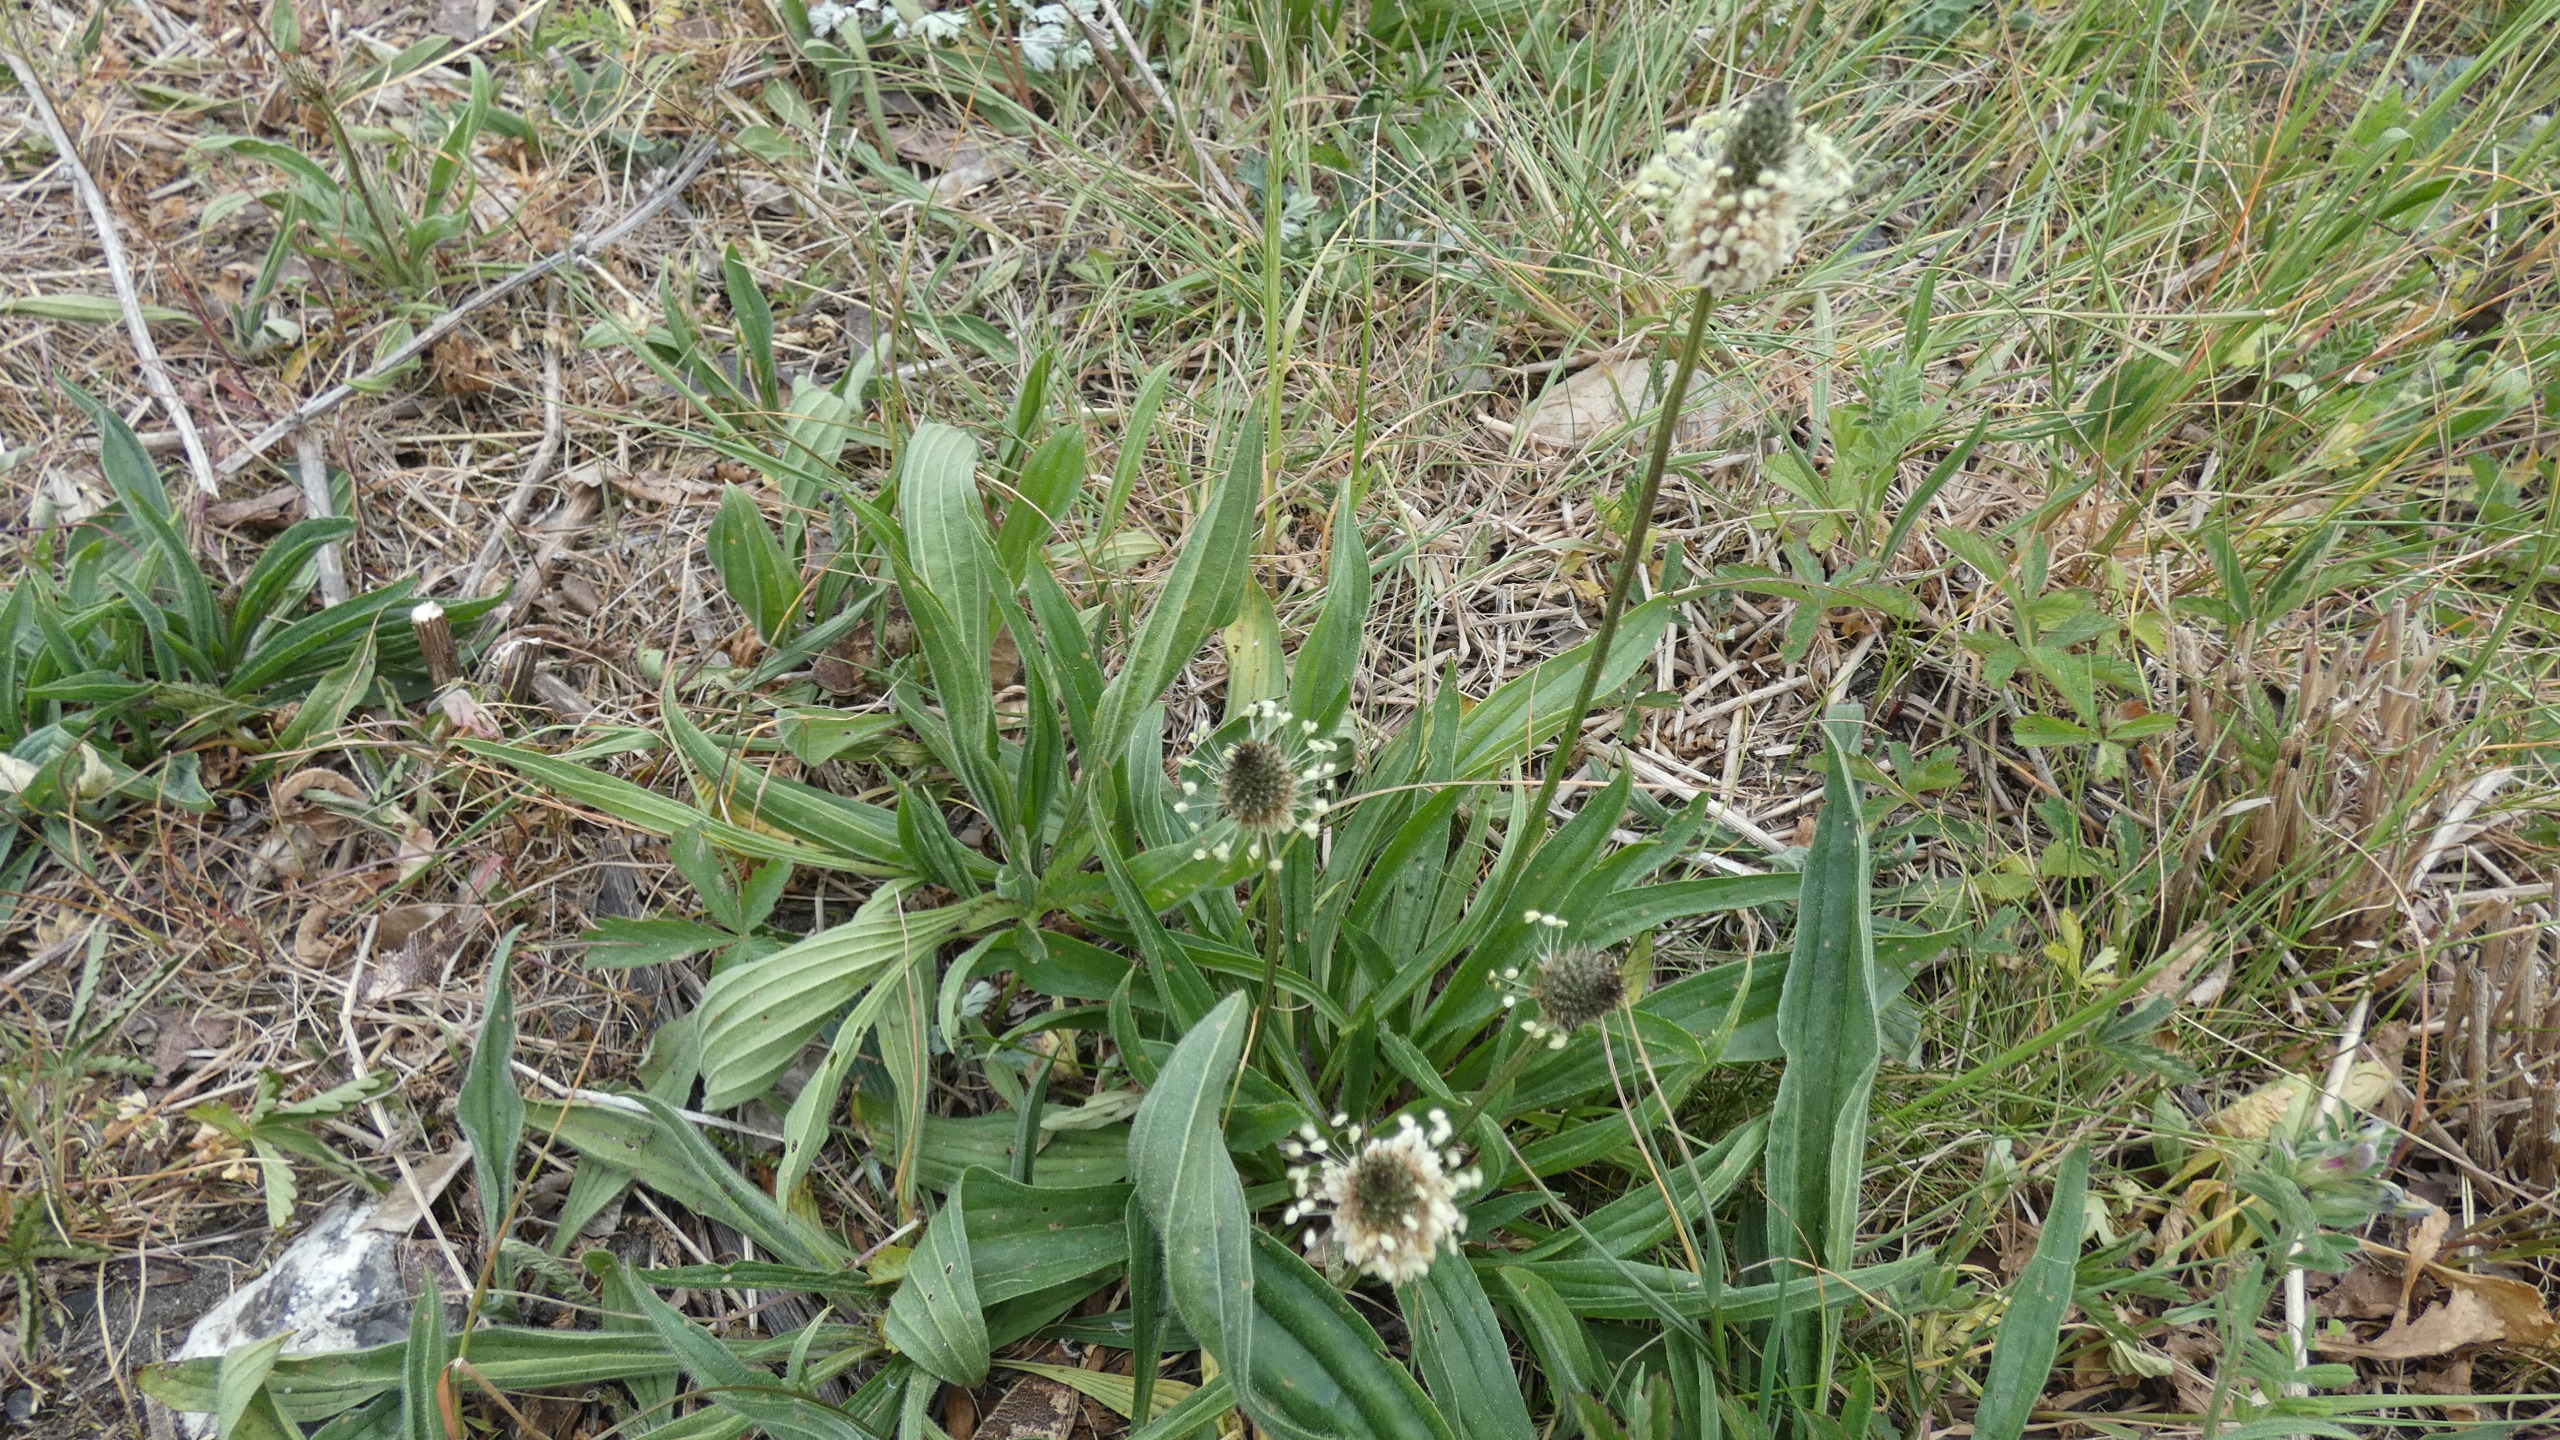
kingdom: Plantae
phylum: Tracheophyta
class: Magnoliopsida
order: Lamiales
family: Plantaginaceae
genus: Plantago
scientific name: Plantago lanceolata
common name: Lancet-vejbred
